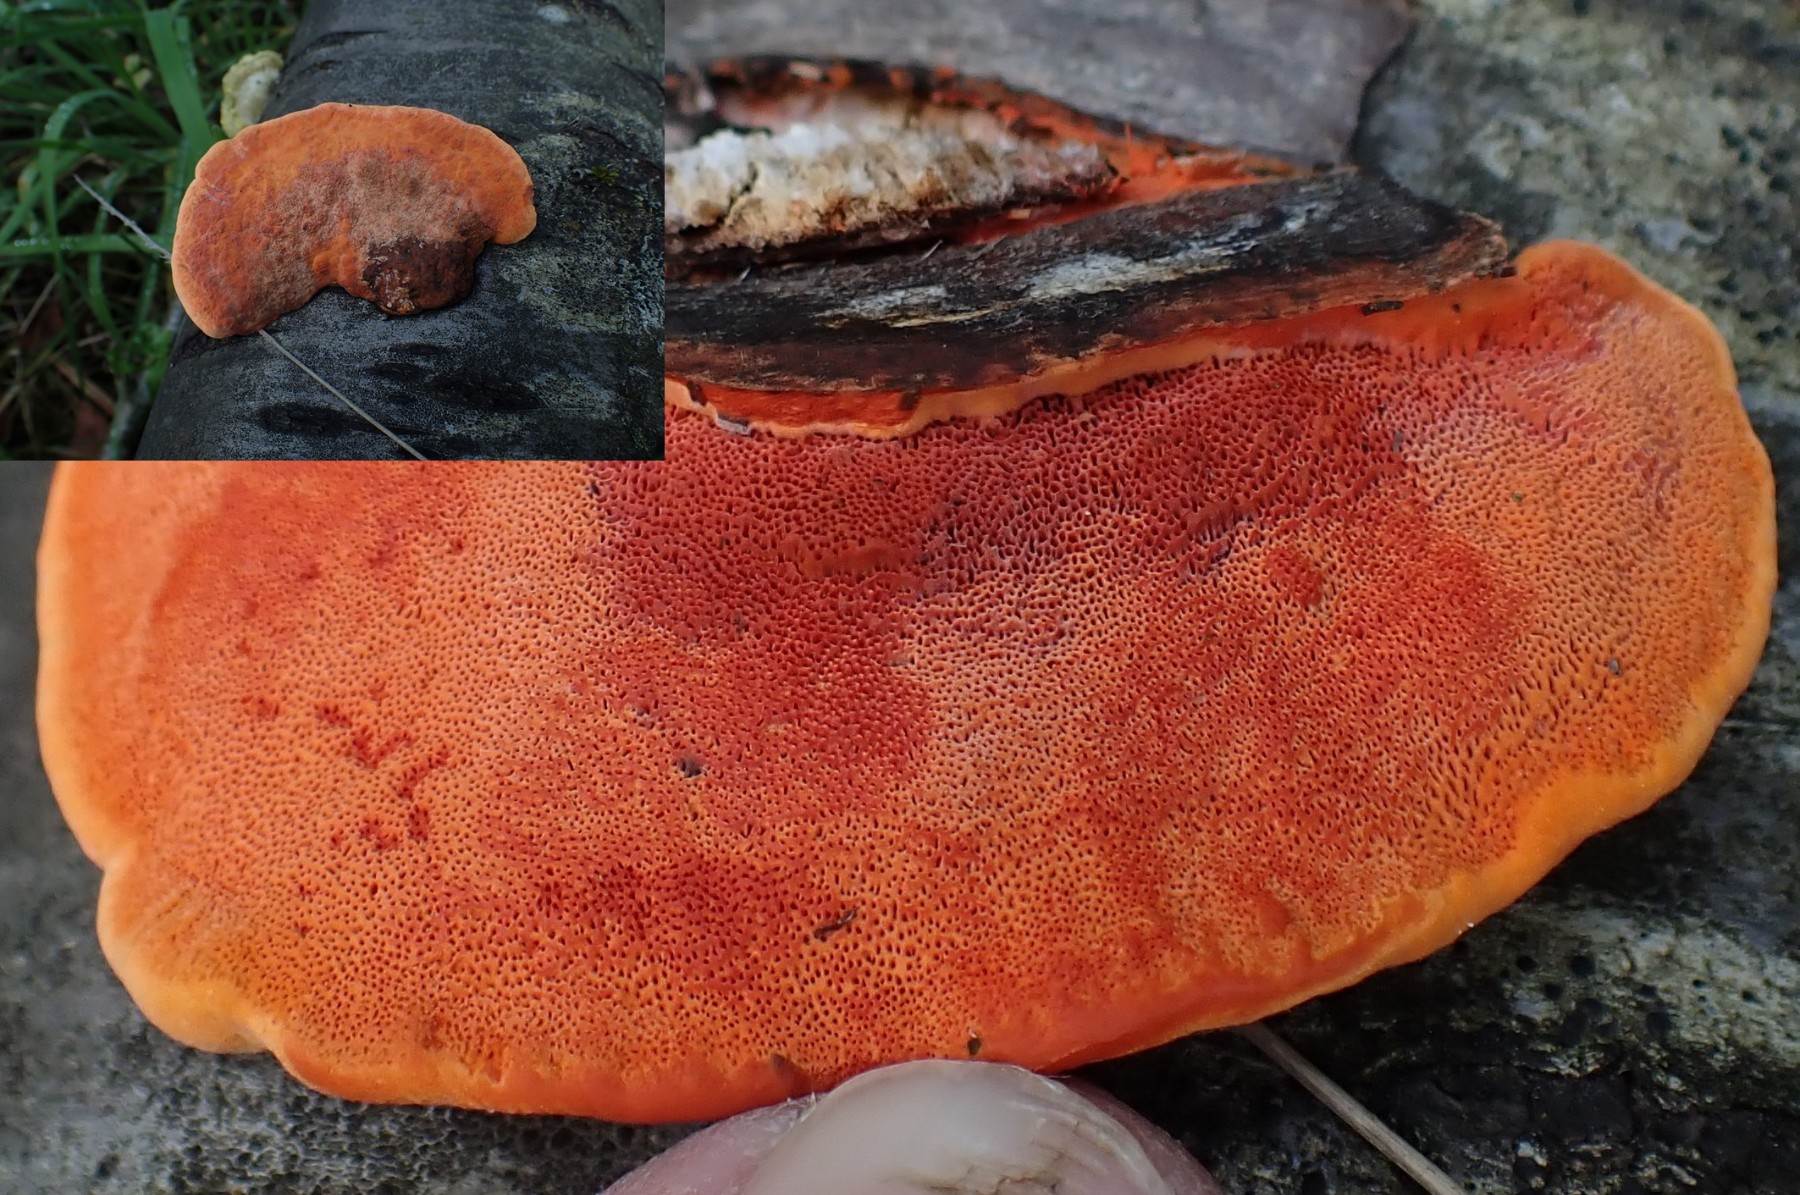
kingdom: Fungi
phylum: Basidiomycota
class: Agaricomycetes
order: Polyporales
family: Polyporaceae
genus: Trametes
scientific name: Trametes cinnabarina
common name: cinnoberporesvamp
